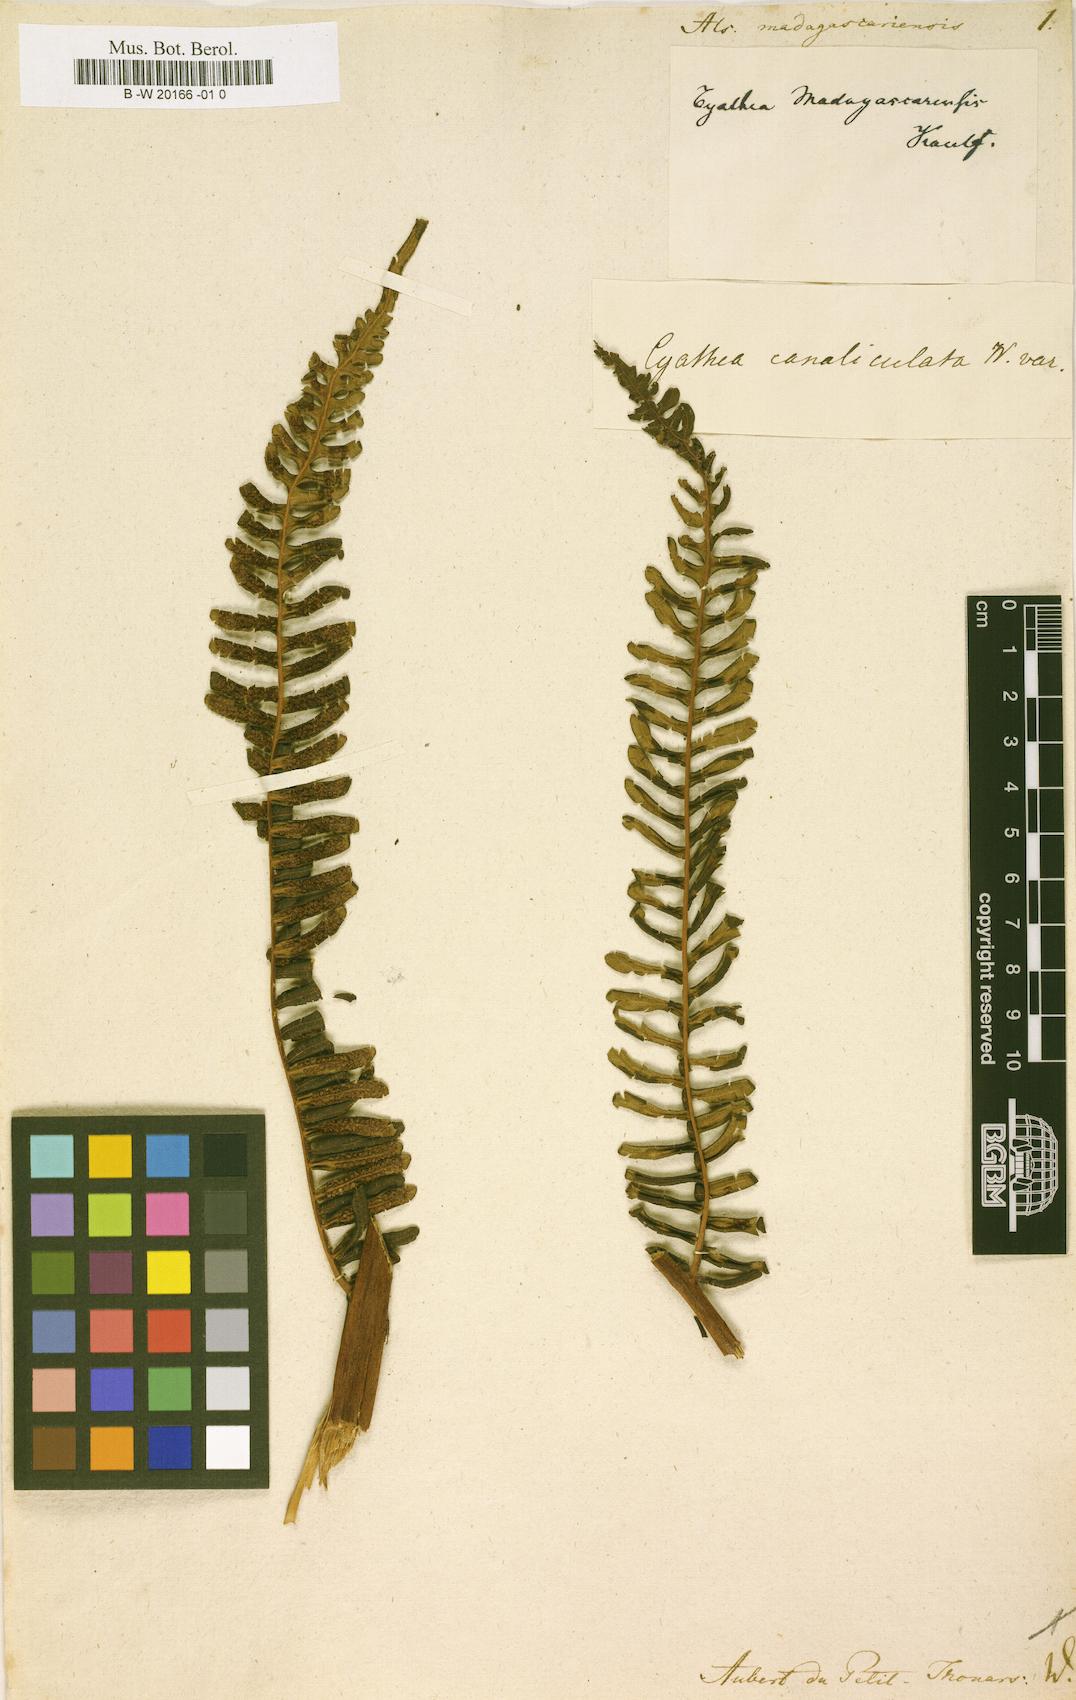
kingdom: Plantae
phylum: Tracheophyta
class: Polypodiopsida
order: Cyatheales
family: Cyatheaceae
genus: Alsophila
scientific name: Alsophila
